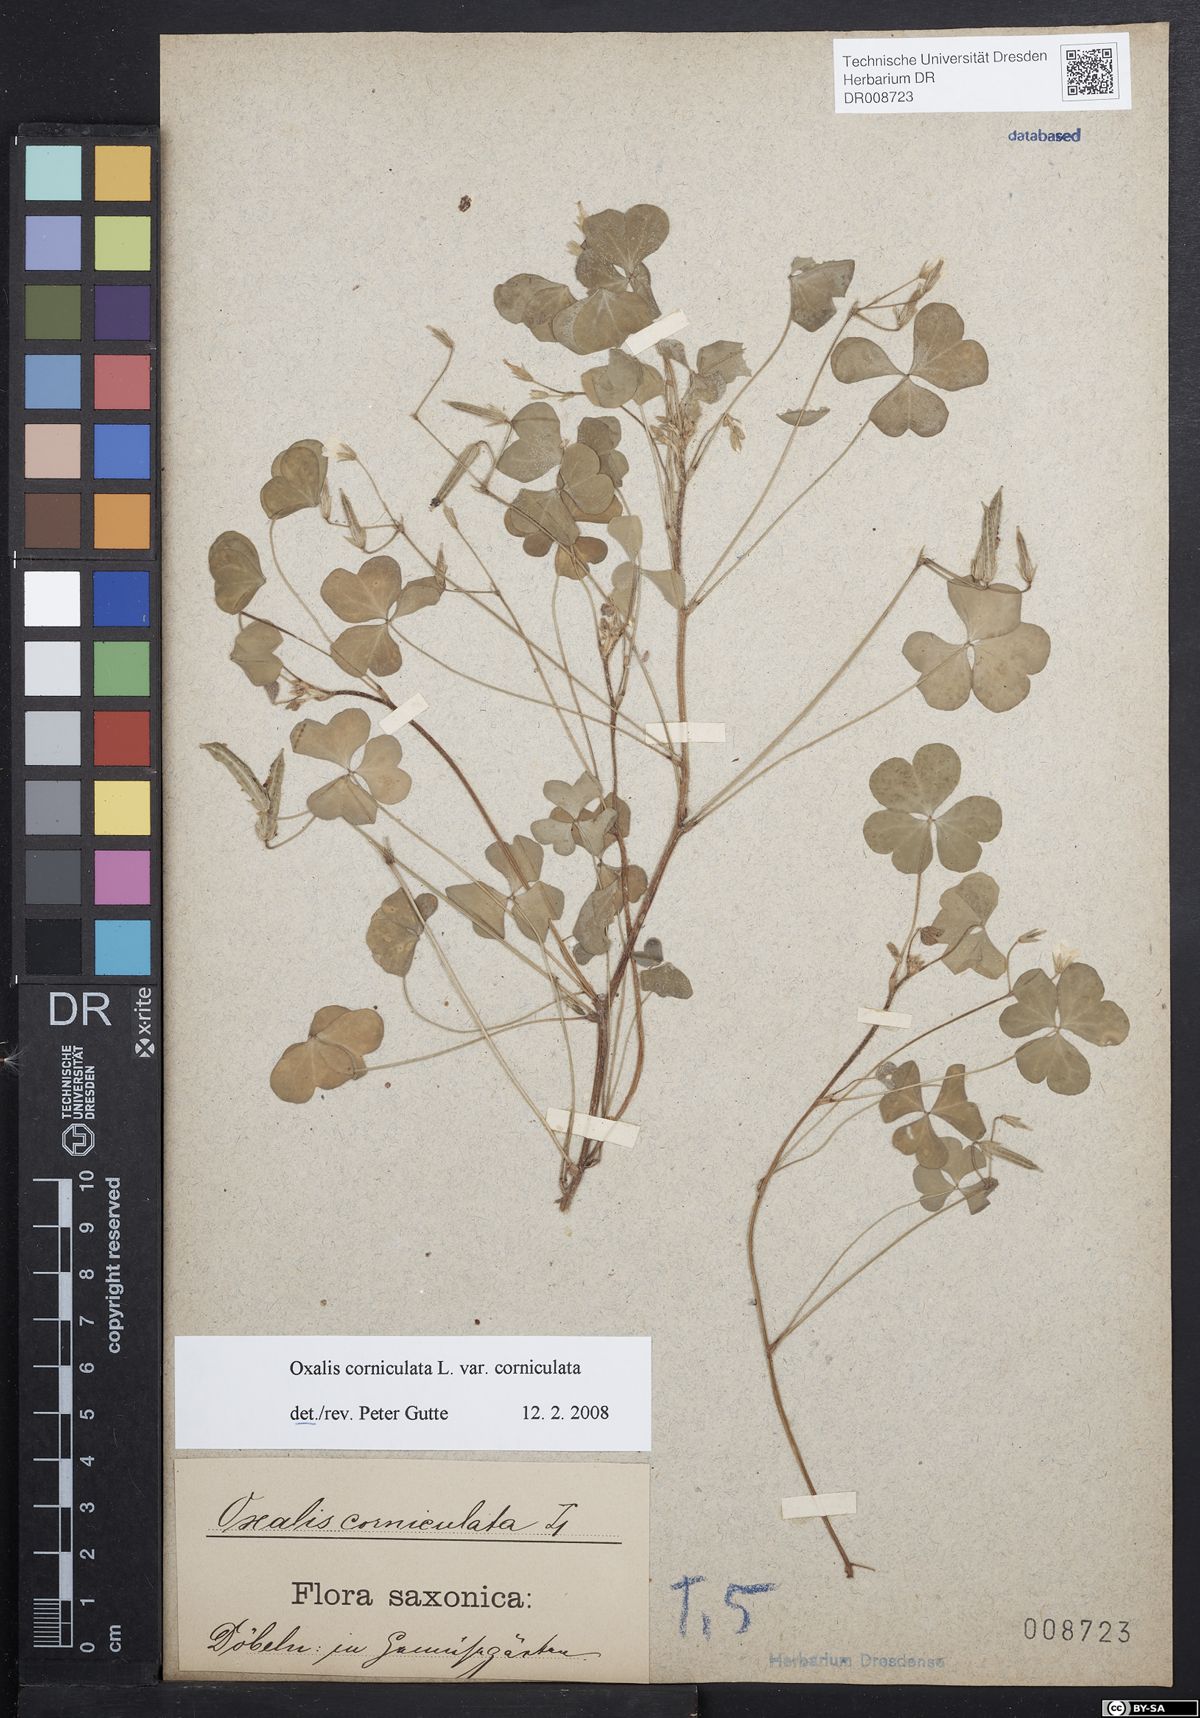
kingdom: Plantae
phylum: Tracheophyta
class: Magnoliopsida
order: Oxalidales
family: Oxalidaceae
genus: Oxalis
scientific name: Oxalis corniculata
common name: Procumbent yellow-sorrel
